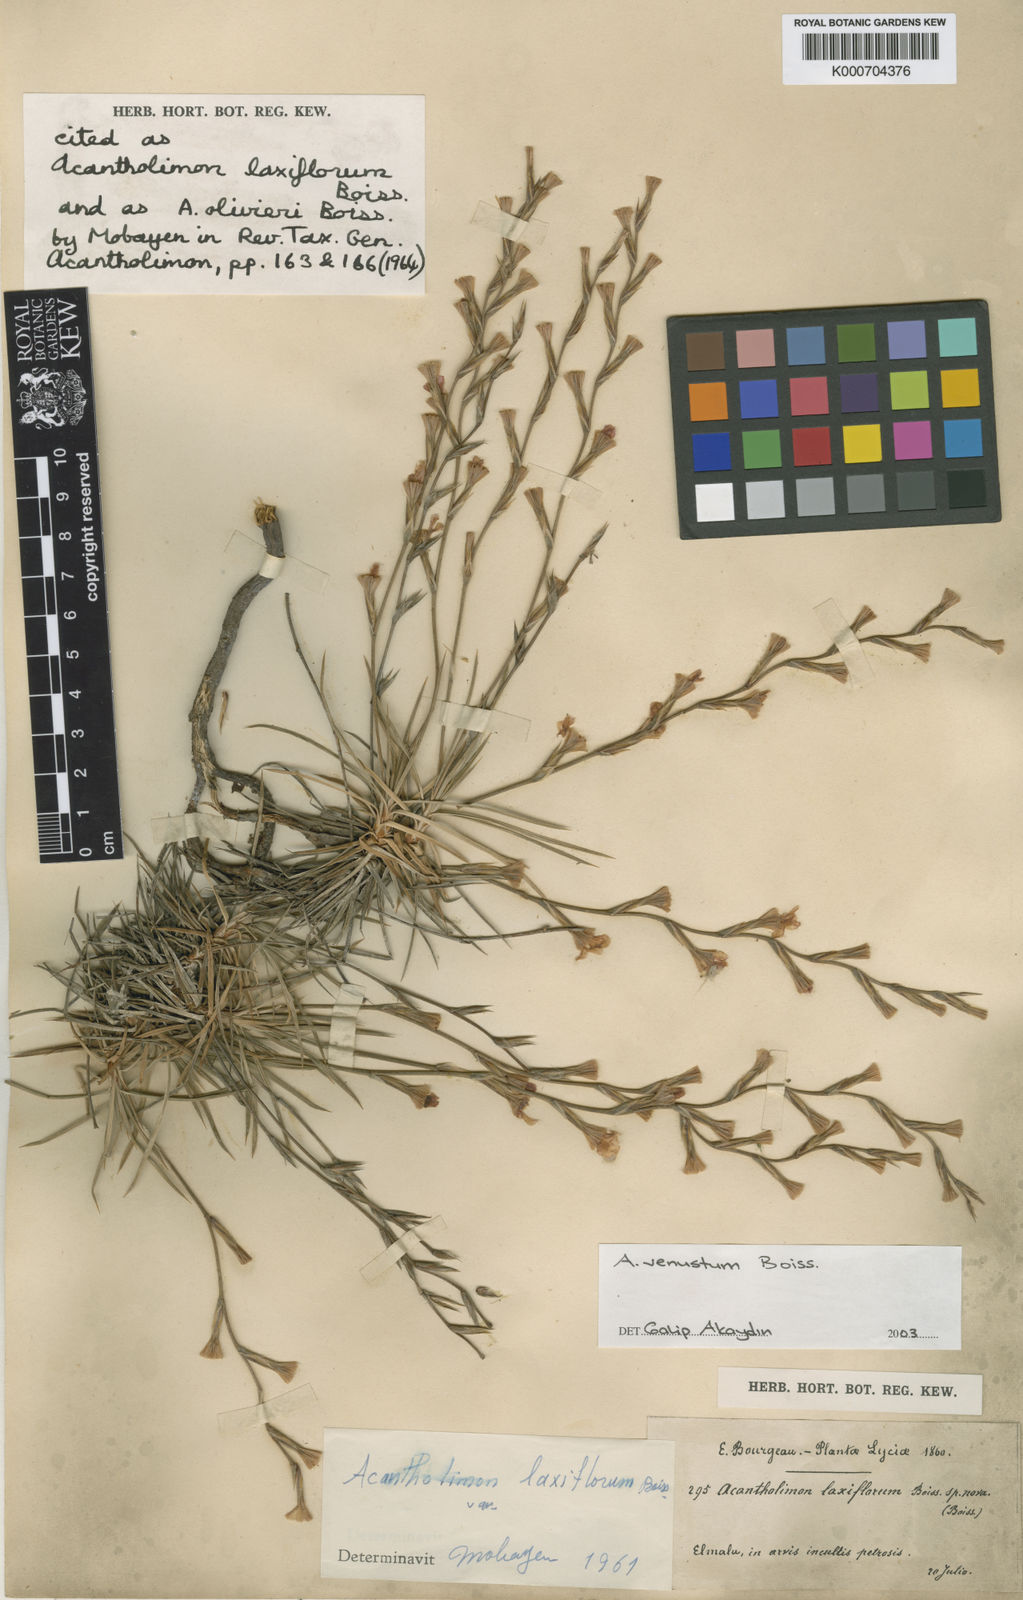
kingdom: Plantae
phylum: Tracheophyta
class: Magnoliopsida
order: Caryophyllales
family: Plumbaginaceae
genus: Acantholimon
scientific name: Acantholimon venustum
